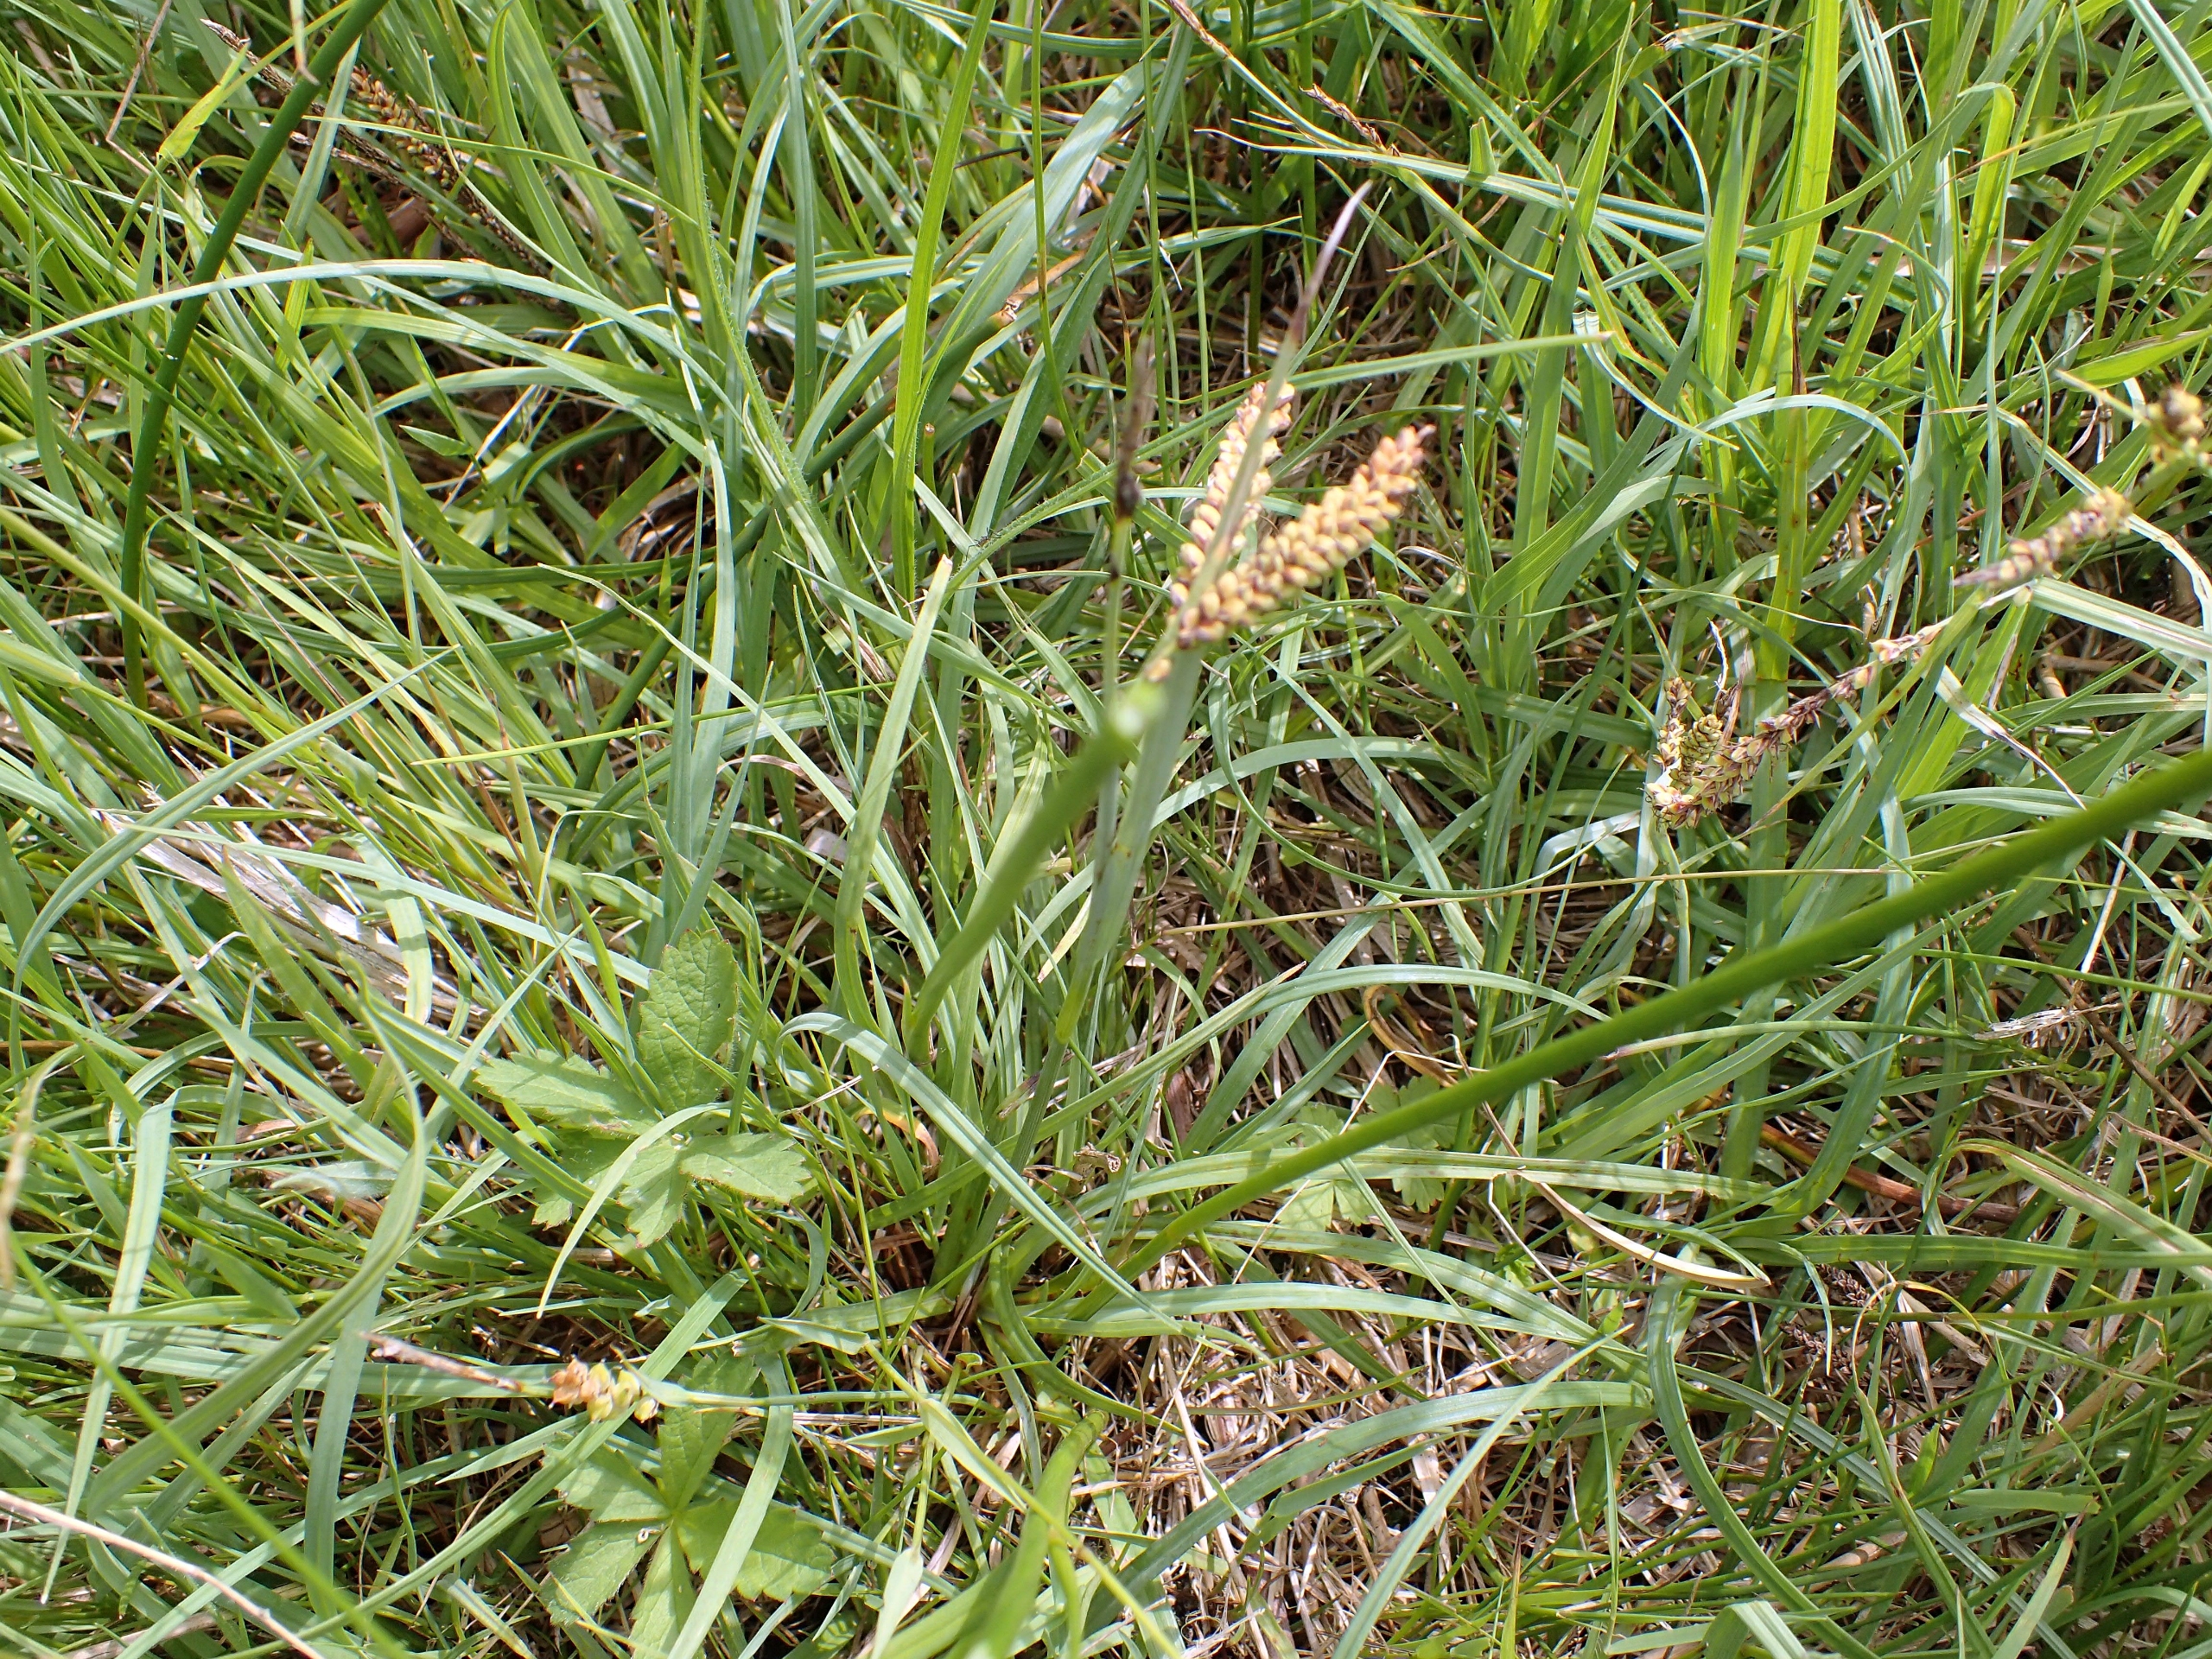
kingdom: Plantae
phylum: Tracheophyta
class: Liliopsida
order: Poales
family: Cyperaceae
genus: Carex
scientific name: Carex flacca
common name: Blågrøn star
